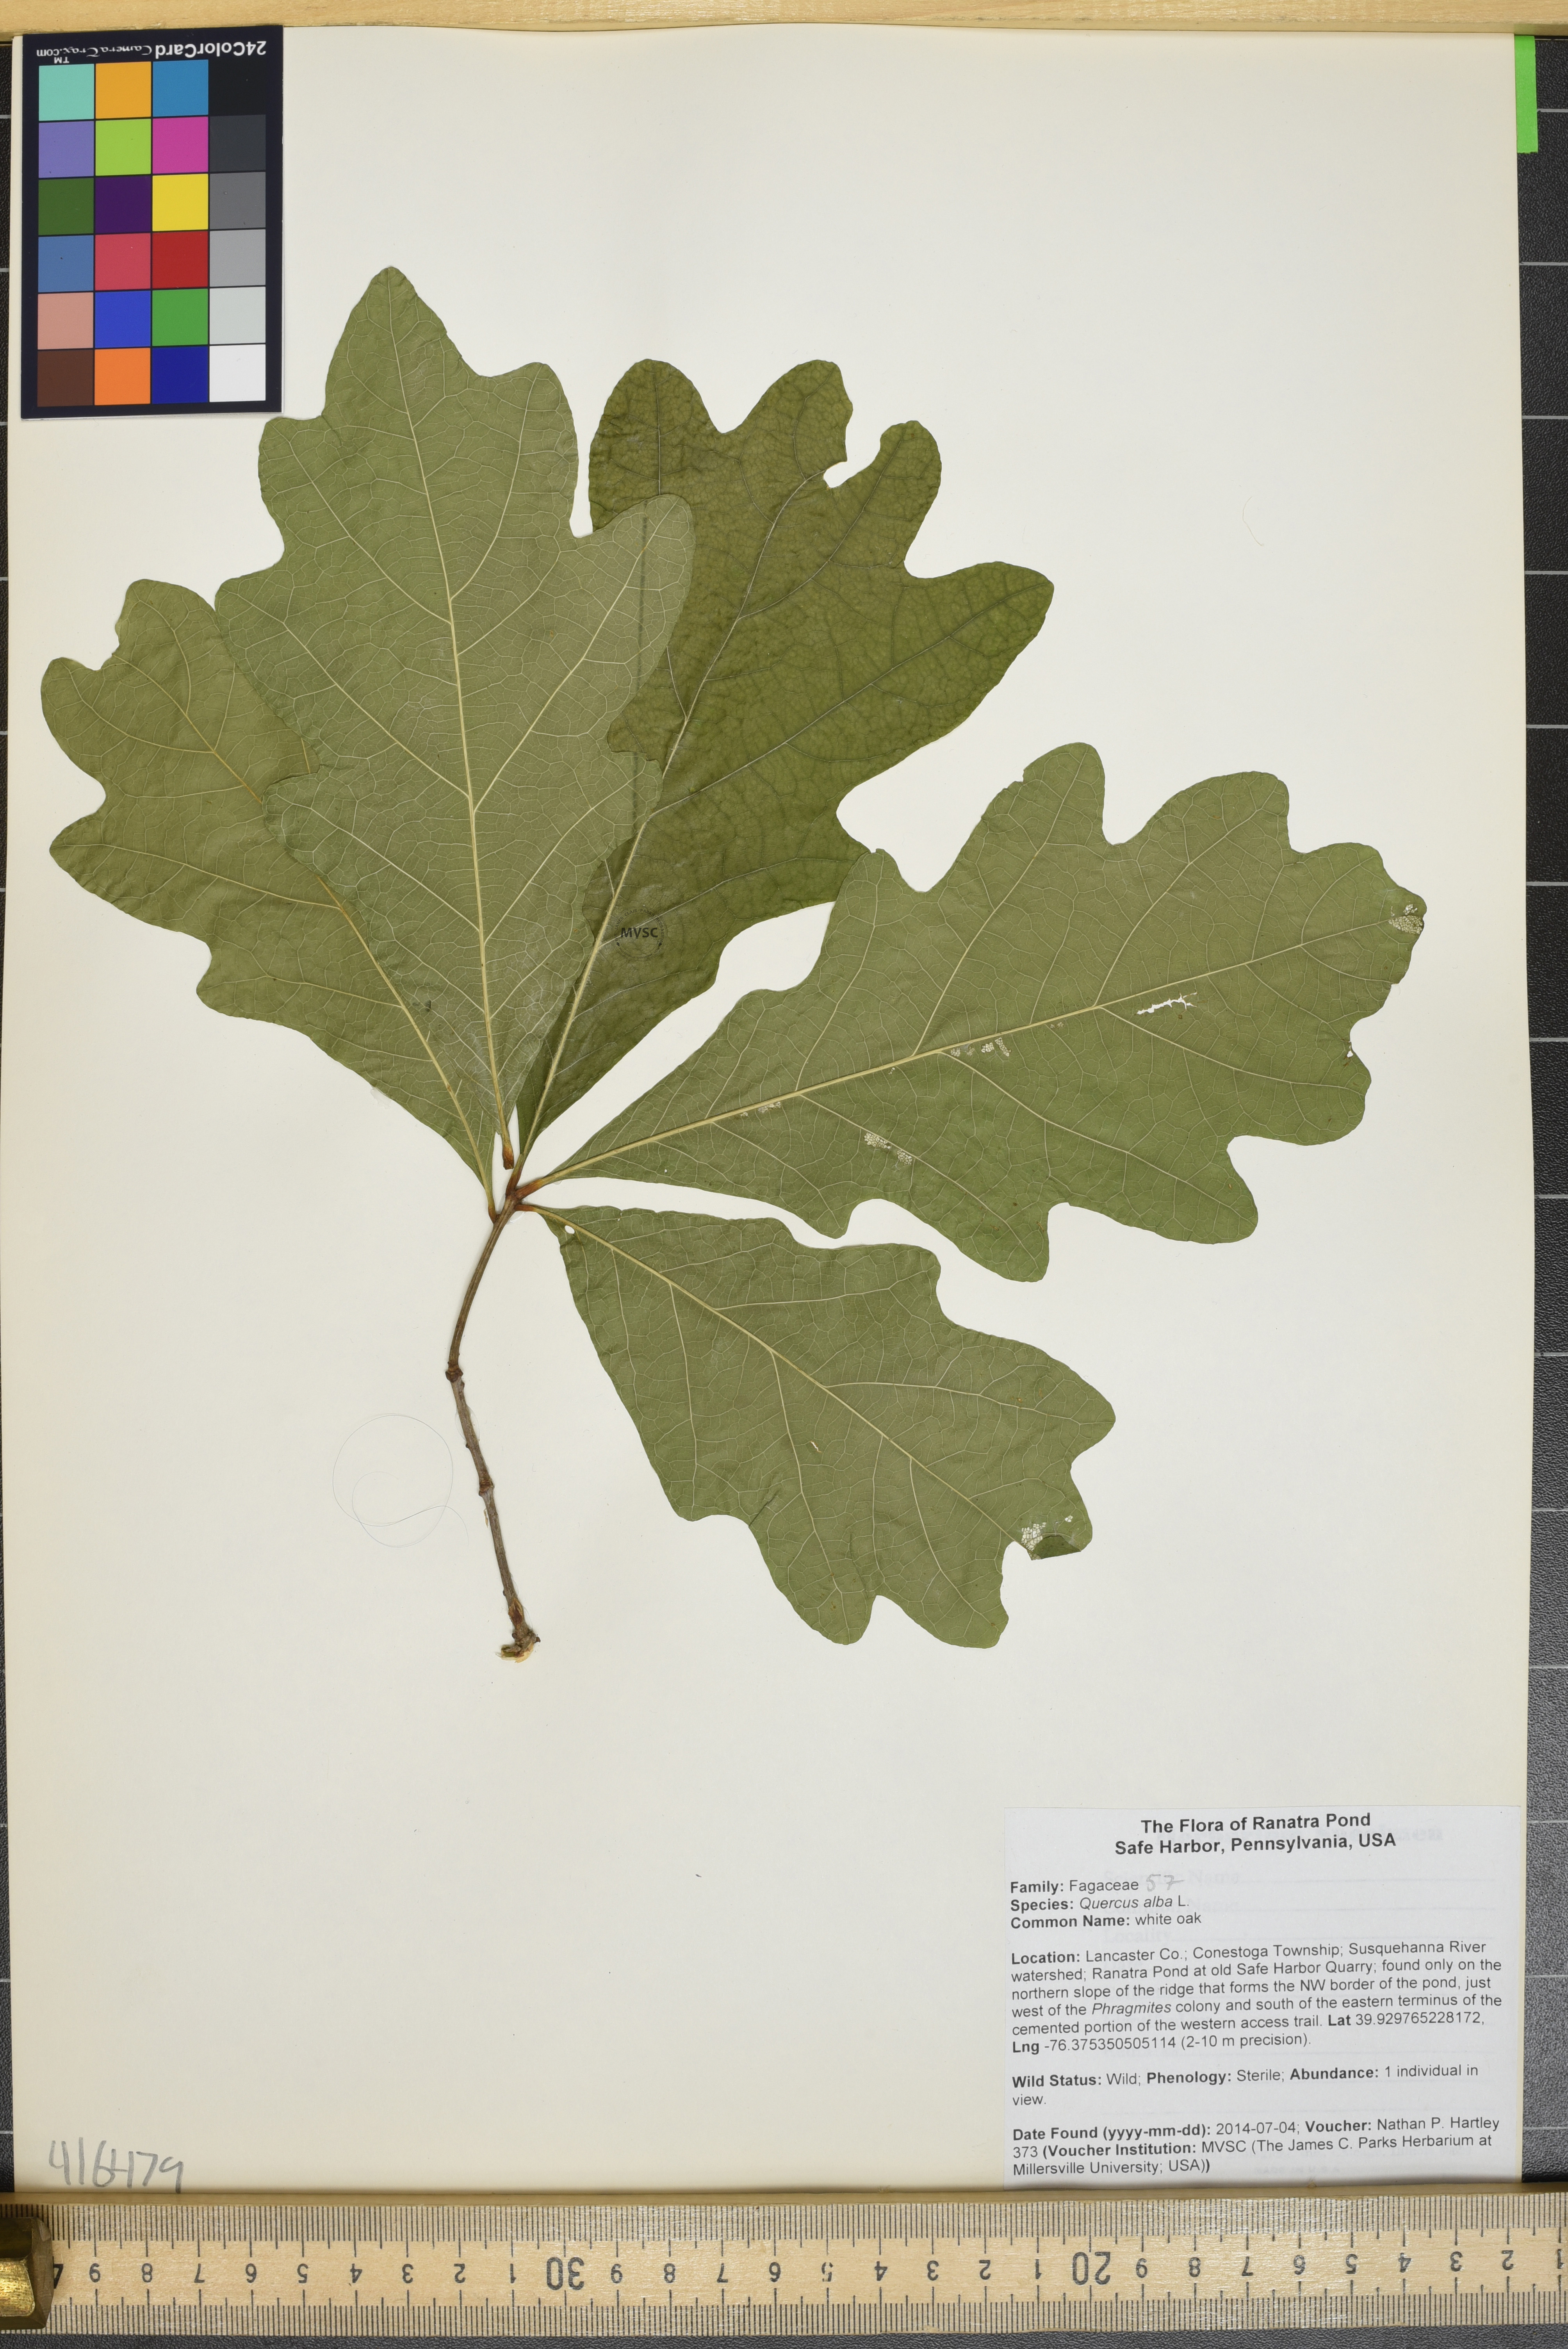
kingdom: Plantae
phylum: Tracheophyta
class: Magnoliopsida
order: Fagales
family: Fagaceae
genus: Quercus
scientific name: Quercus alba
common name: white oak
